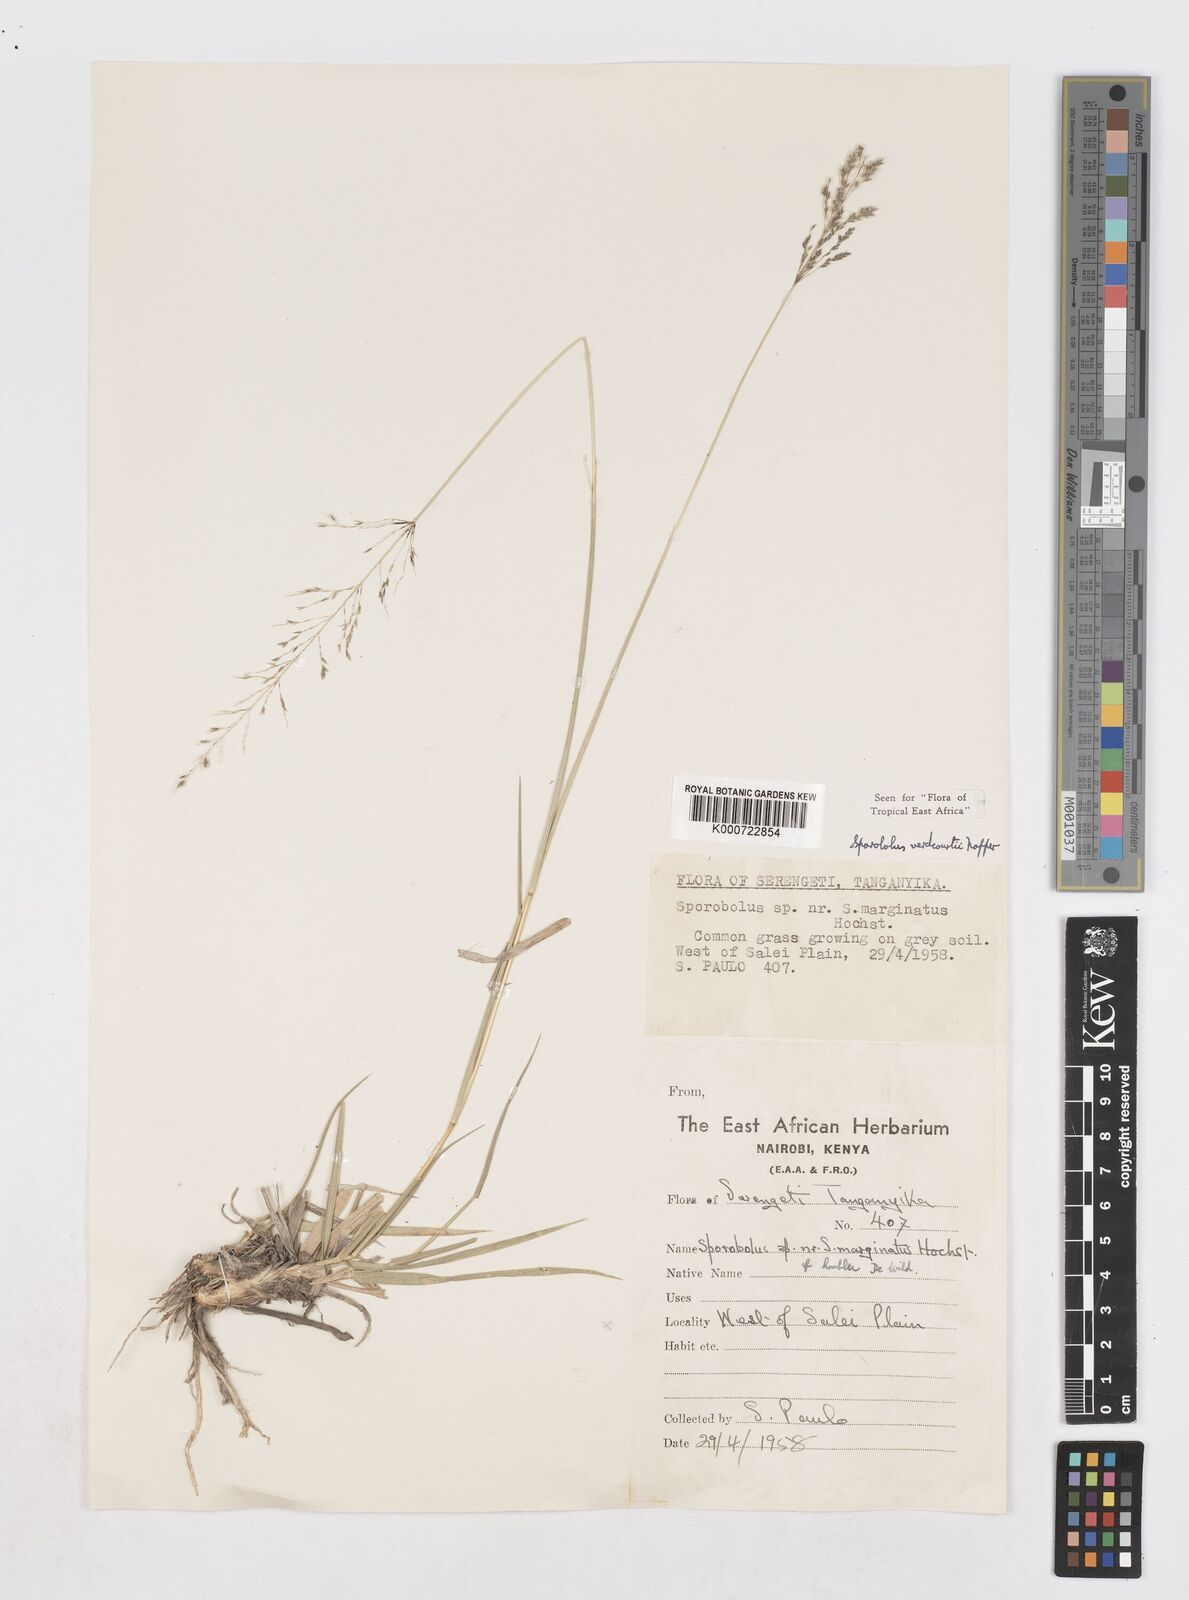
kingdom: Plantae
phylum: Tracheophyta
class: Liliopsida
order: Poales
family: Poaceae
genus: Sporobolus
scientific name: Sporobolus ioclados
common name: Pan dropseed
